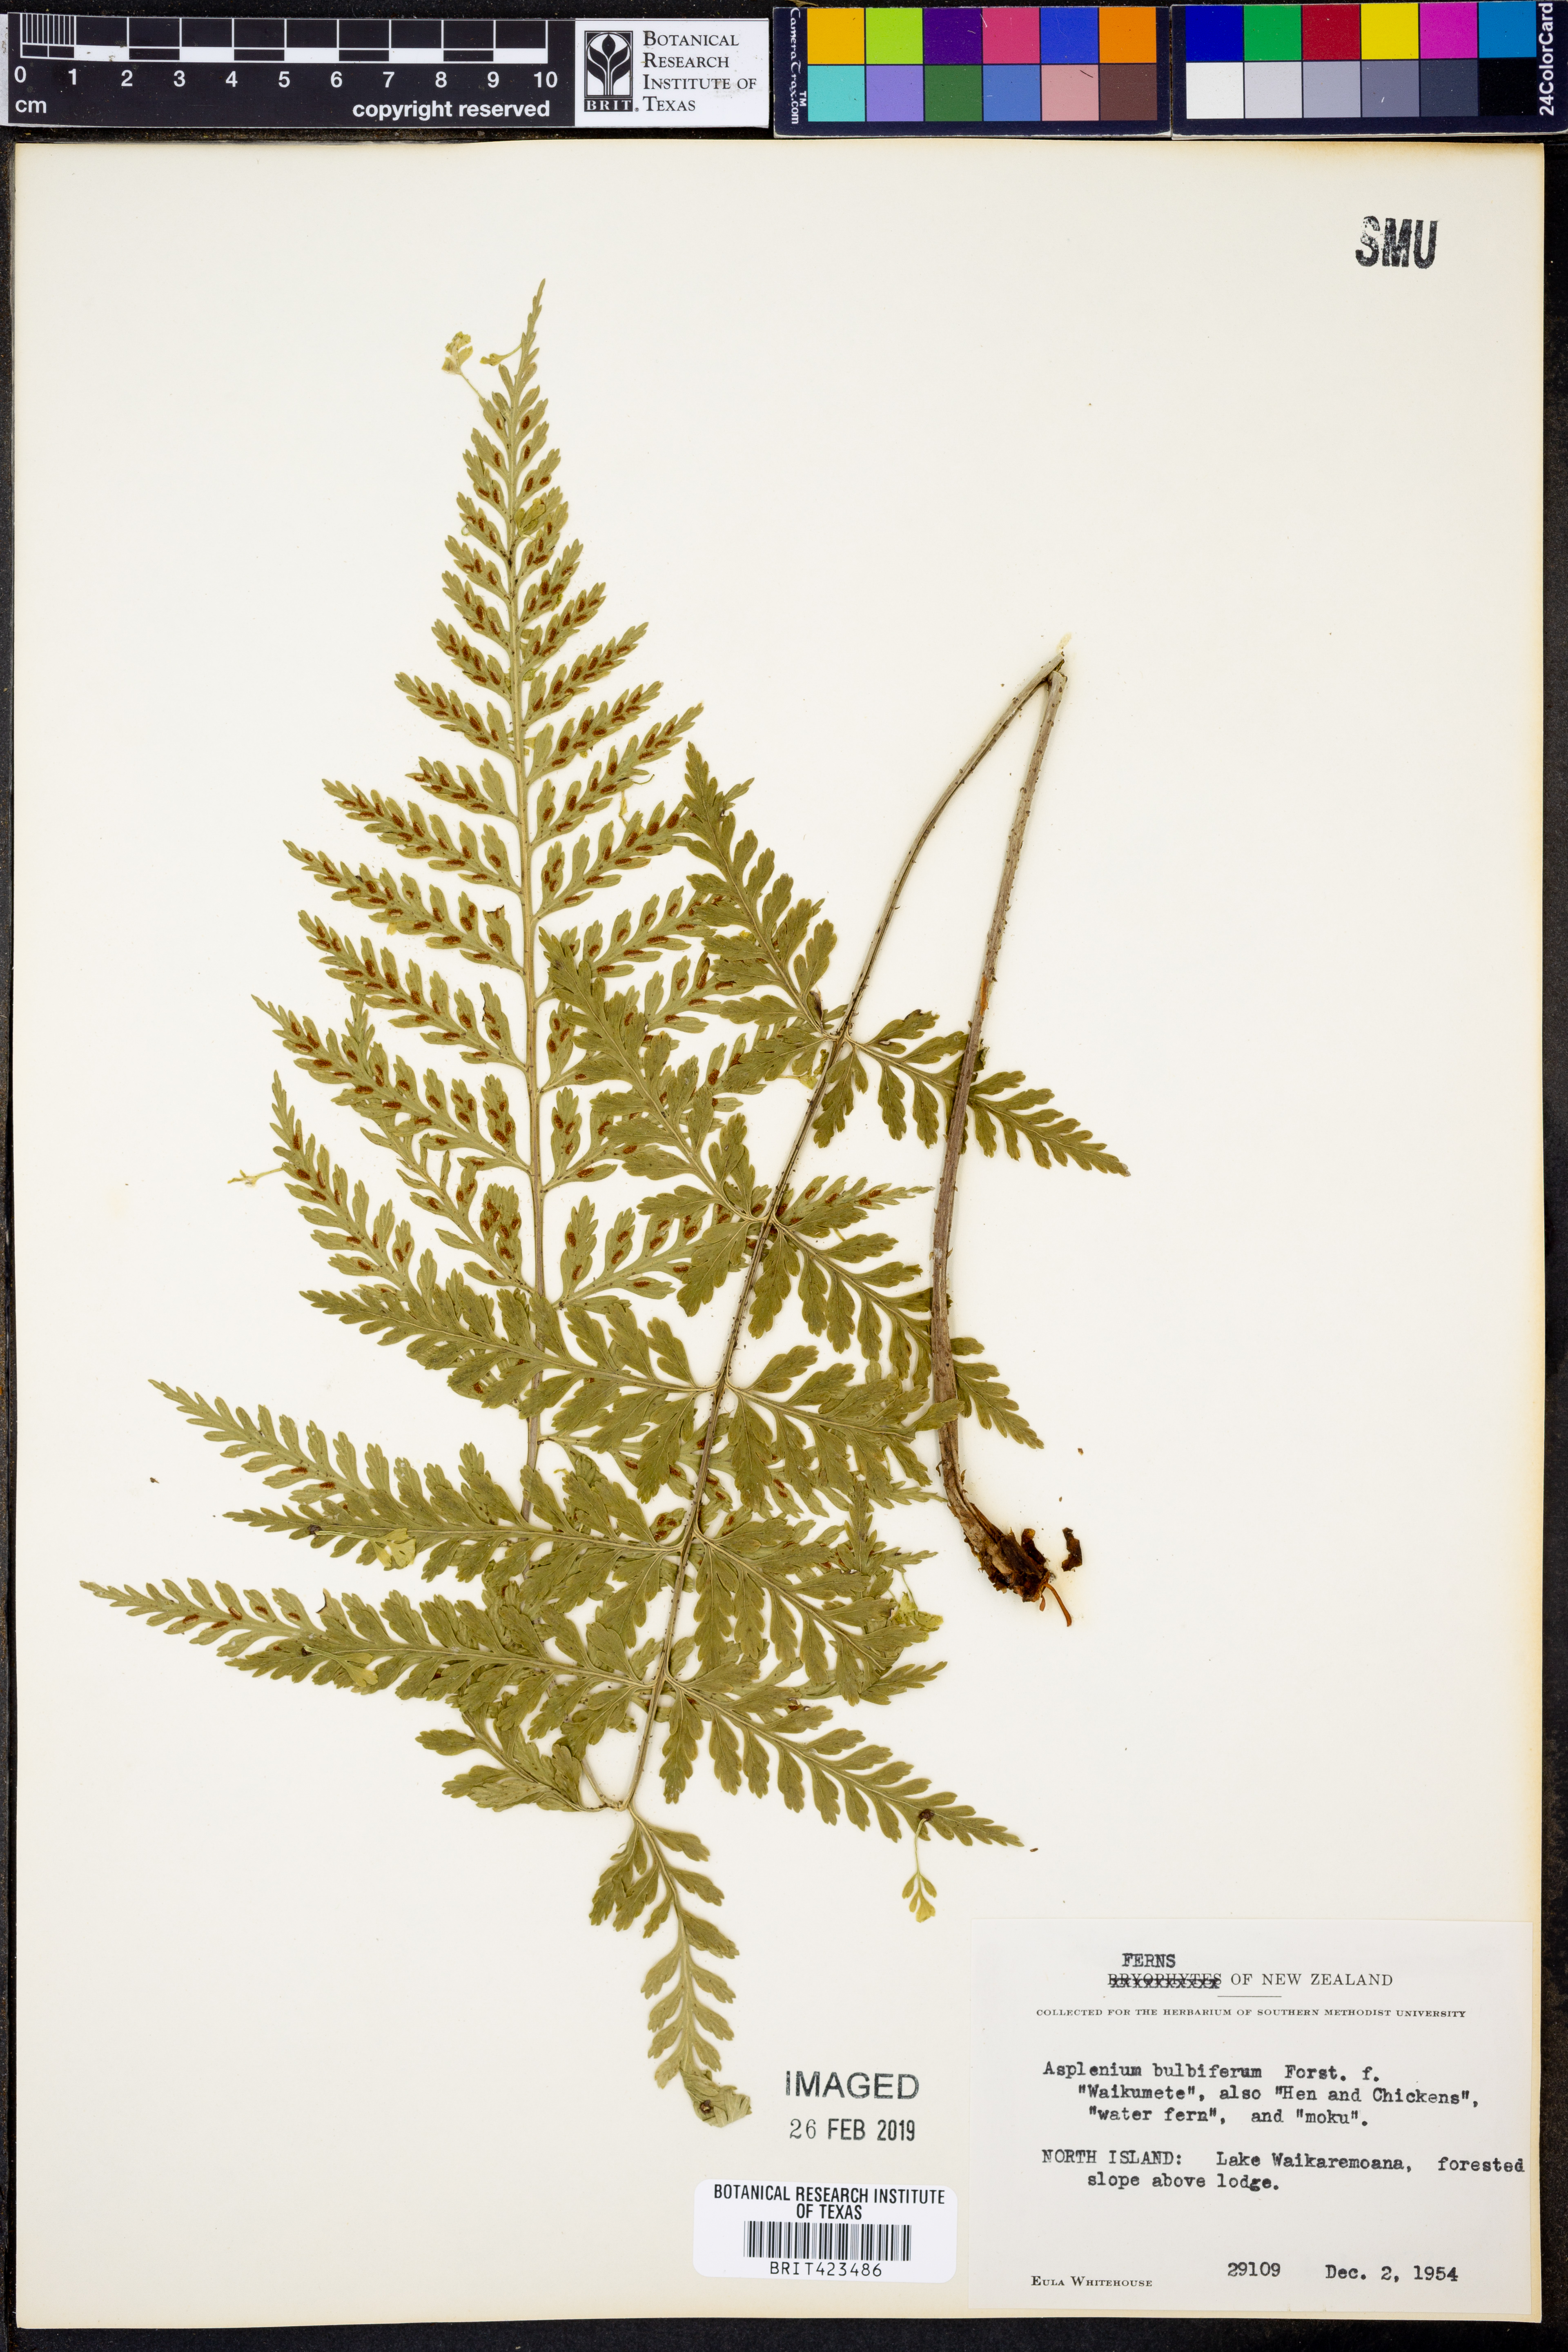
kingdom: Plantae
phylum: Tracheophyta
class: Polypodiopsida
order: Polypodiales
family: Aspleniaceae
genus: Asplenium
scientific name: Asplenium bulbiferum
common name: Mother fern
